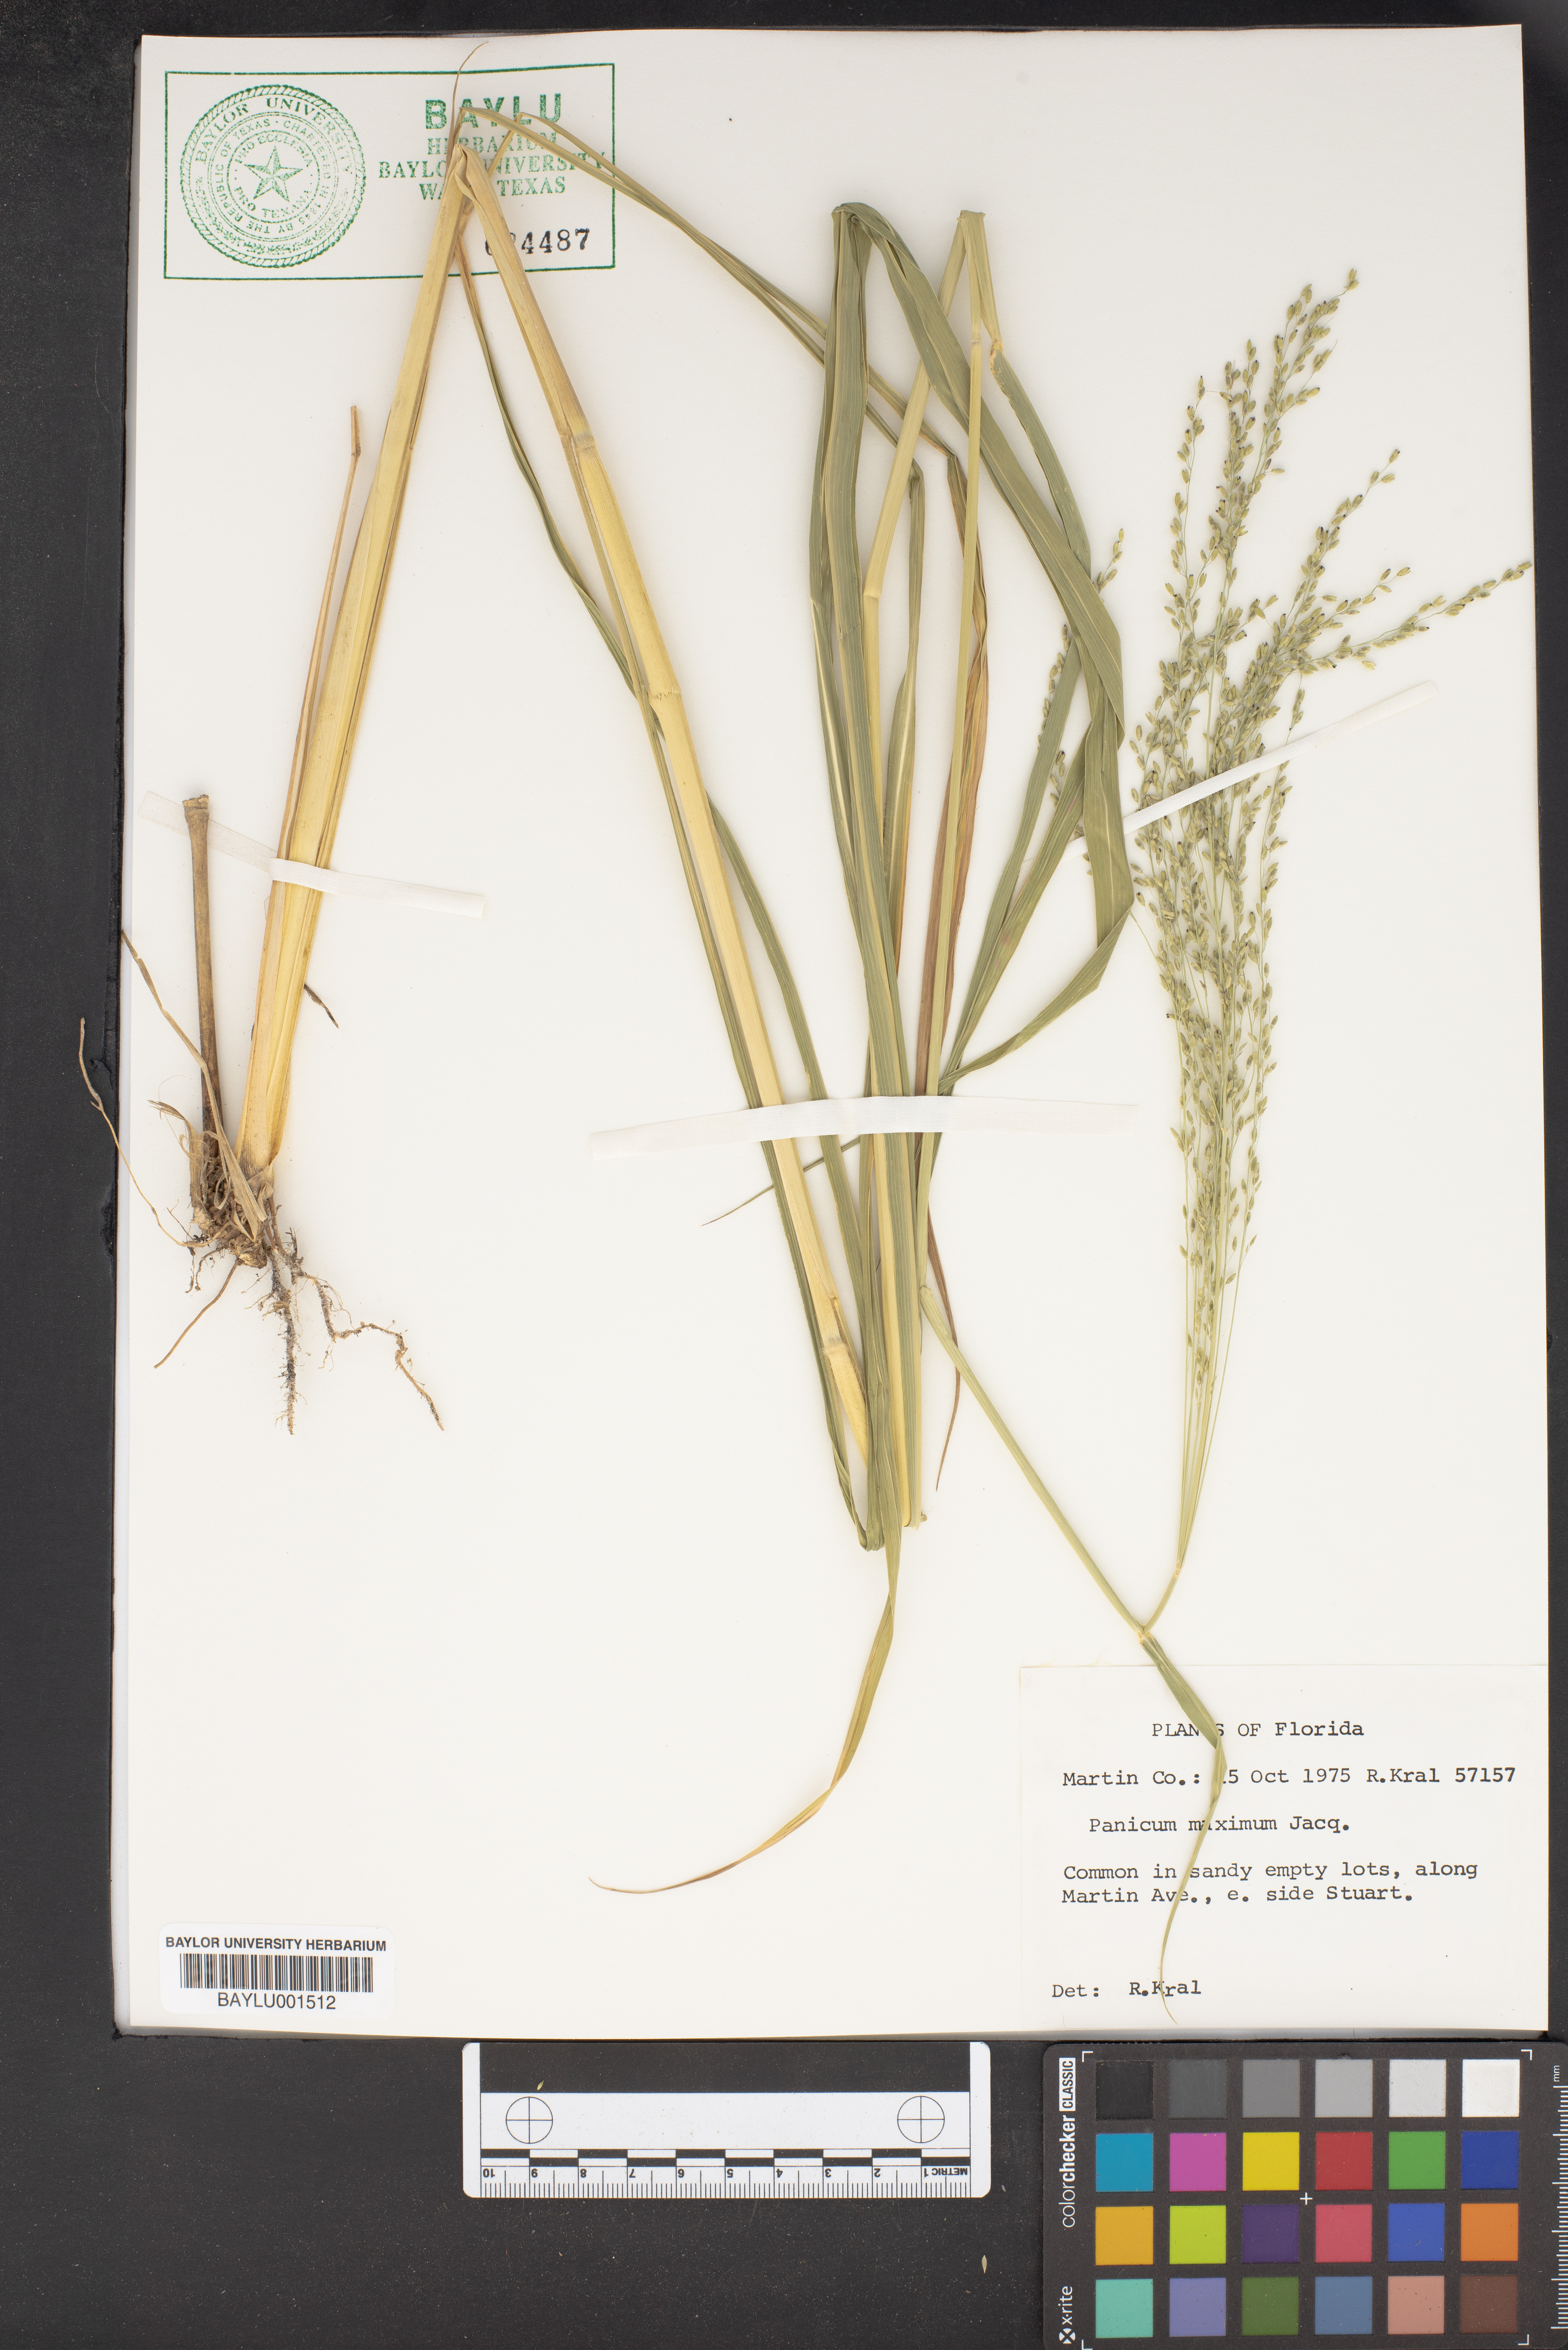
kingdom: Plantae
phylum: Tracheophyta
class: Liliopsida
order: Poales
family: Poaceae
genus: Megathyrsus
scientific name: Megathyrsus maximus
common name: Guineagrass
